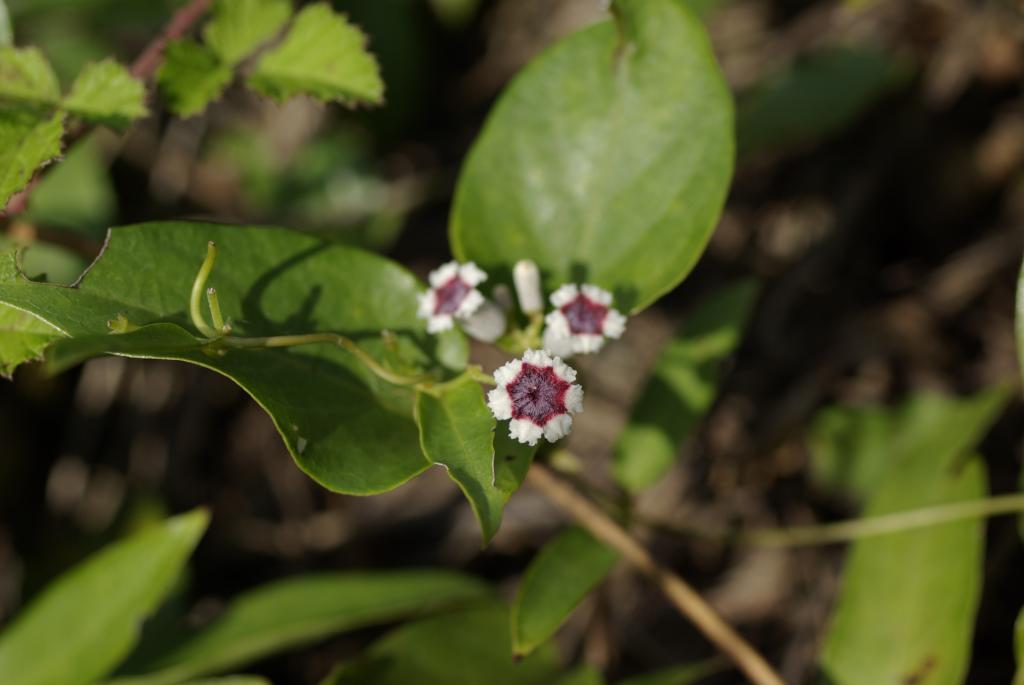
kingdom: Plantae
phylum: Tracheophyta
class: Magnoliopsida
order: Gentianales
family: Rubiaceae
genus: Paederia
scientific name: Paederia foetida
